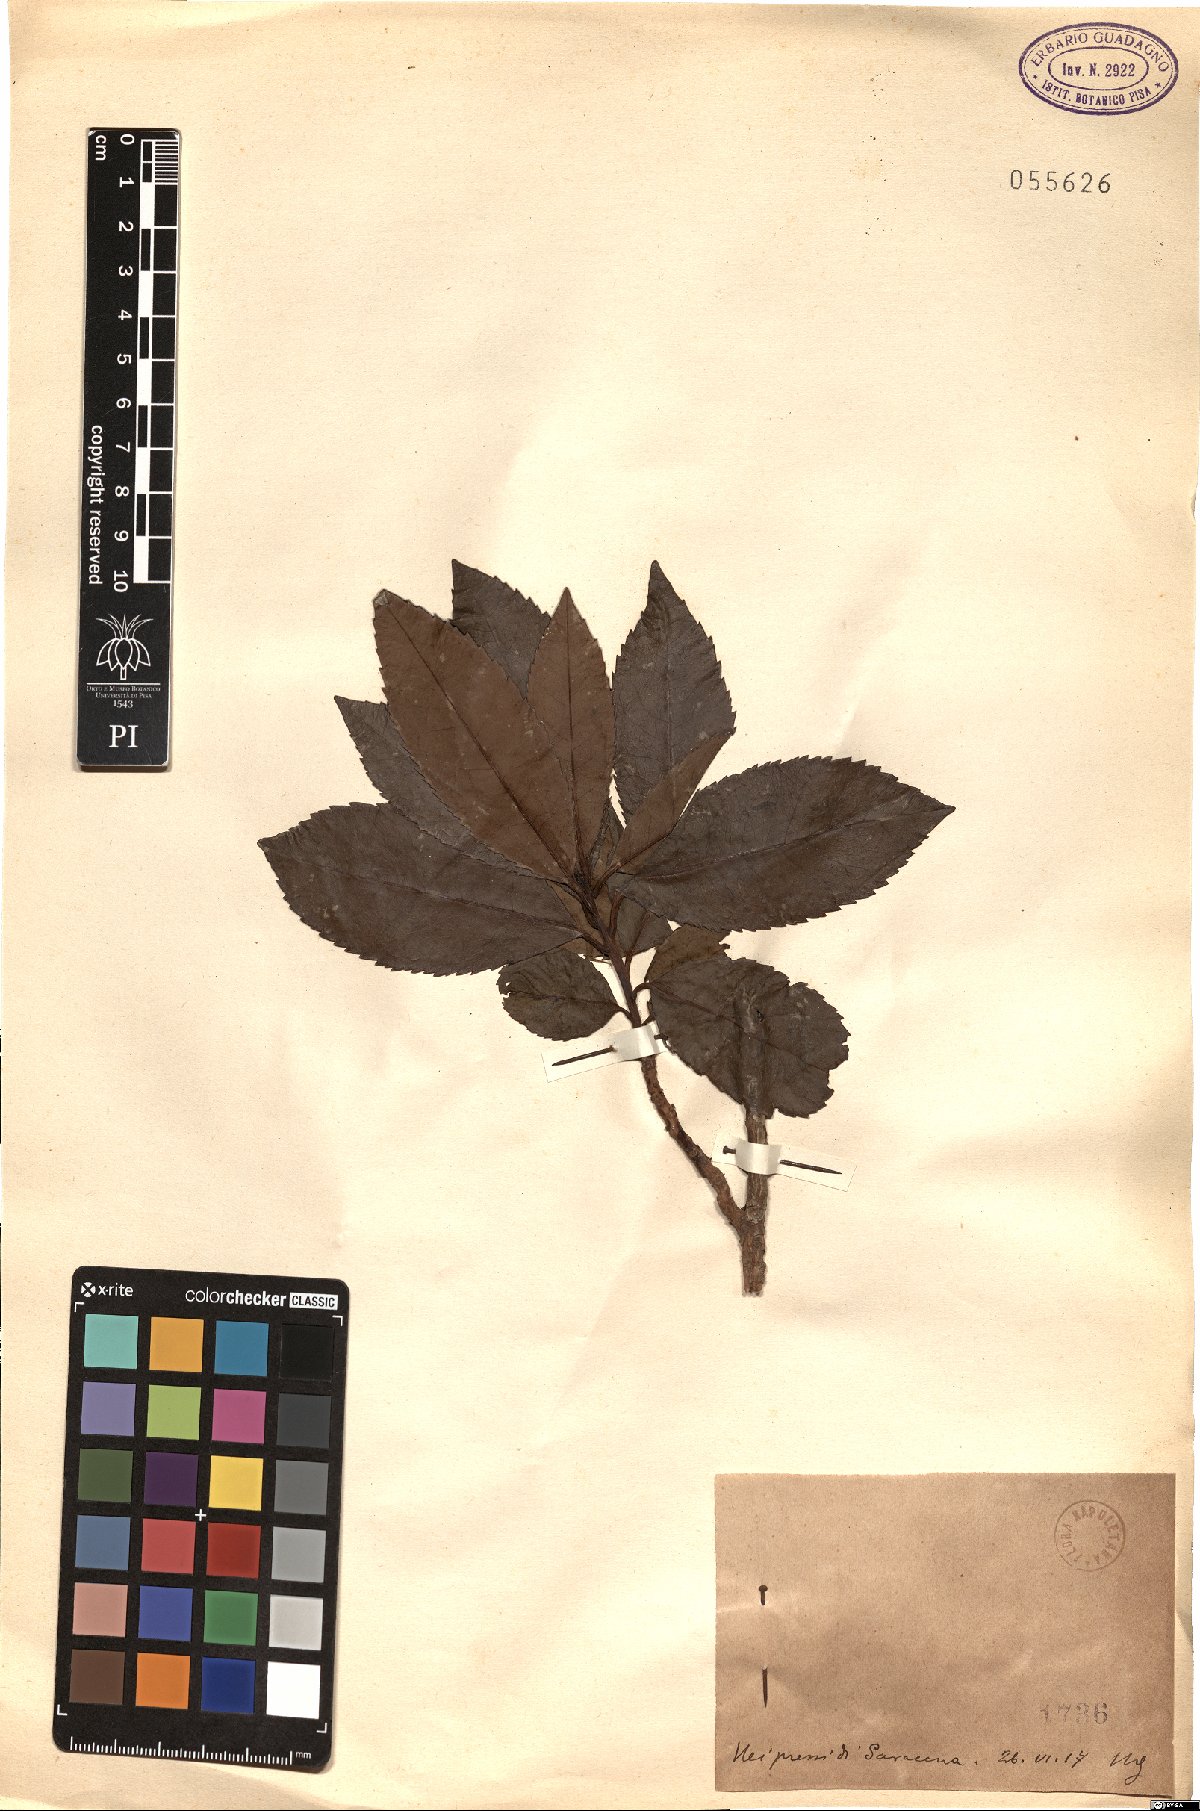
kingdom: Plantae
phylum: Tracheophyta
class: Magnoliopsida
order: Ericales
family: Ericaceae
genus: Arbutus
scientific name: Arbutus
